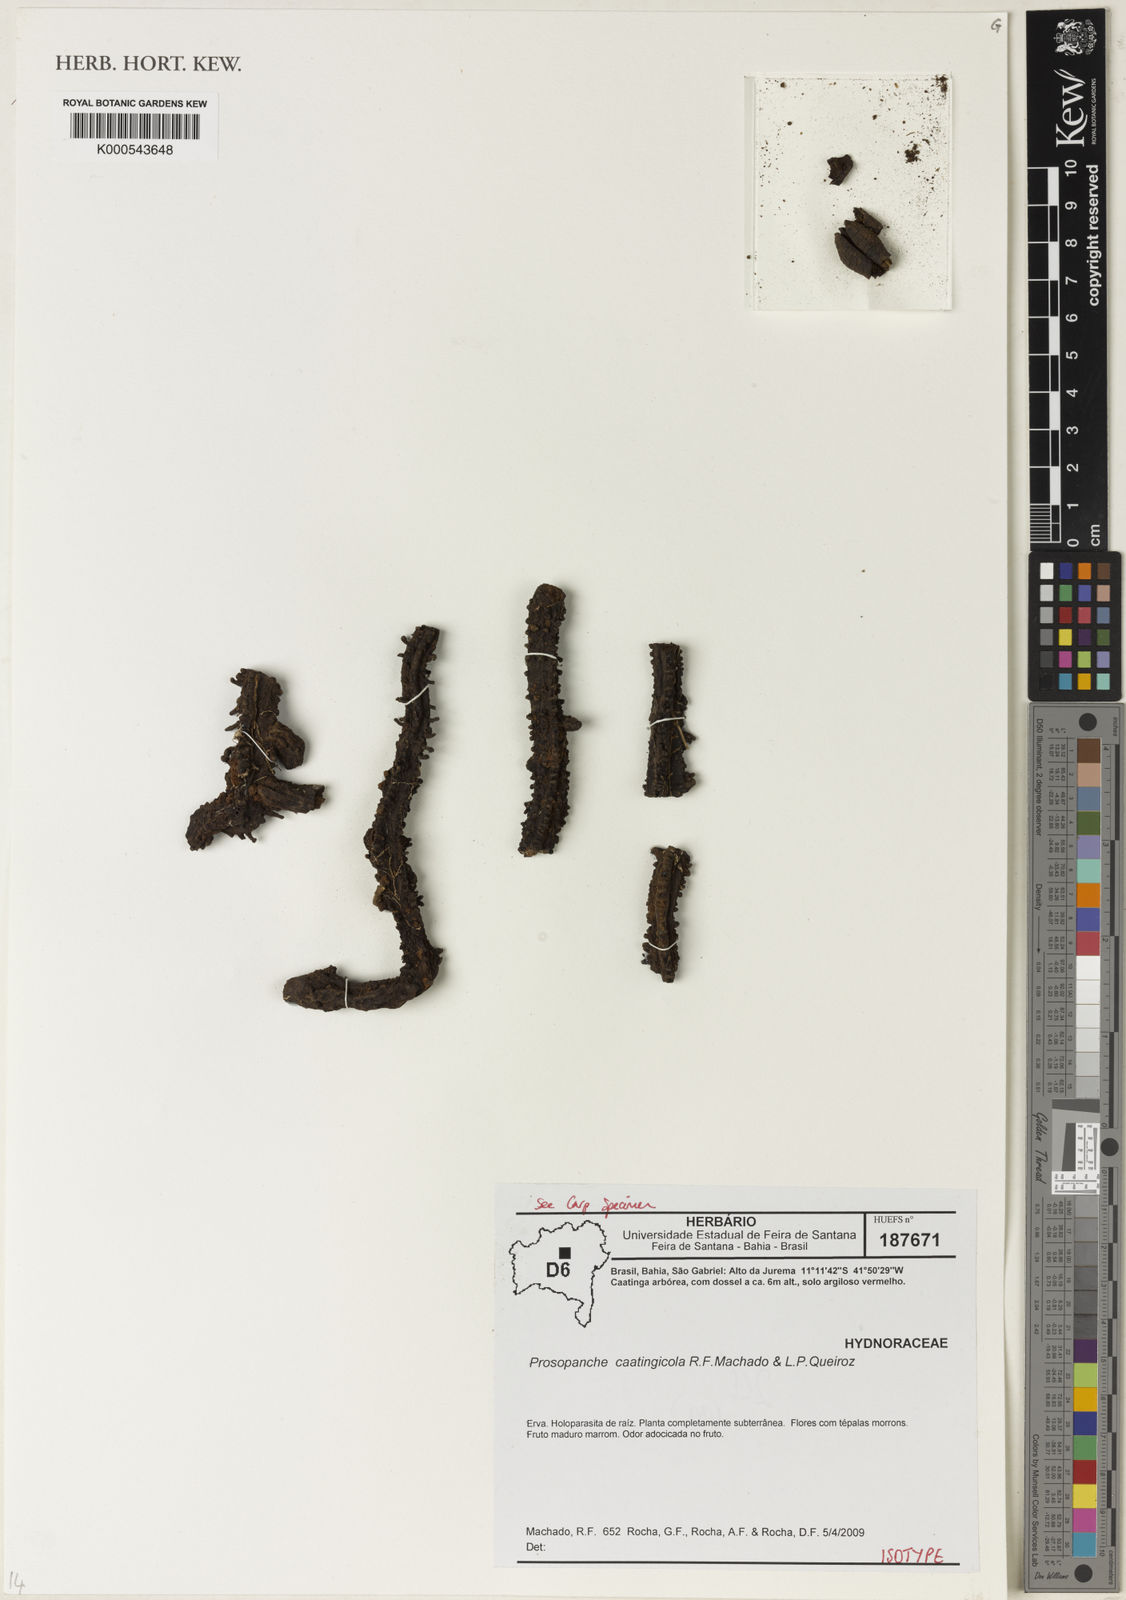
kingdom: Plantae
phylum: Tracheophyta
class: Magnoliopsida
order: Piperales
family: Hydnoraceae
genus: Prosopanche
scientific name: Prosopanche caatingicola
